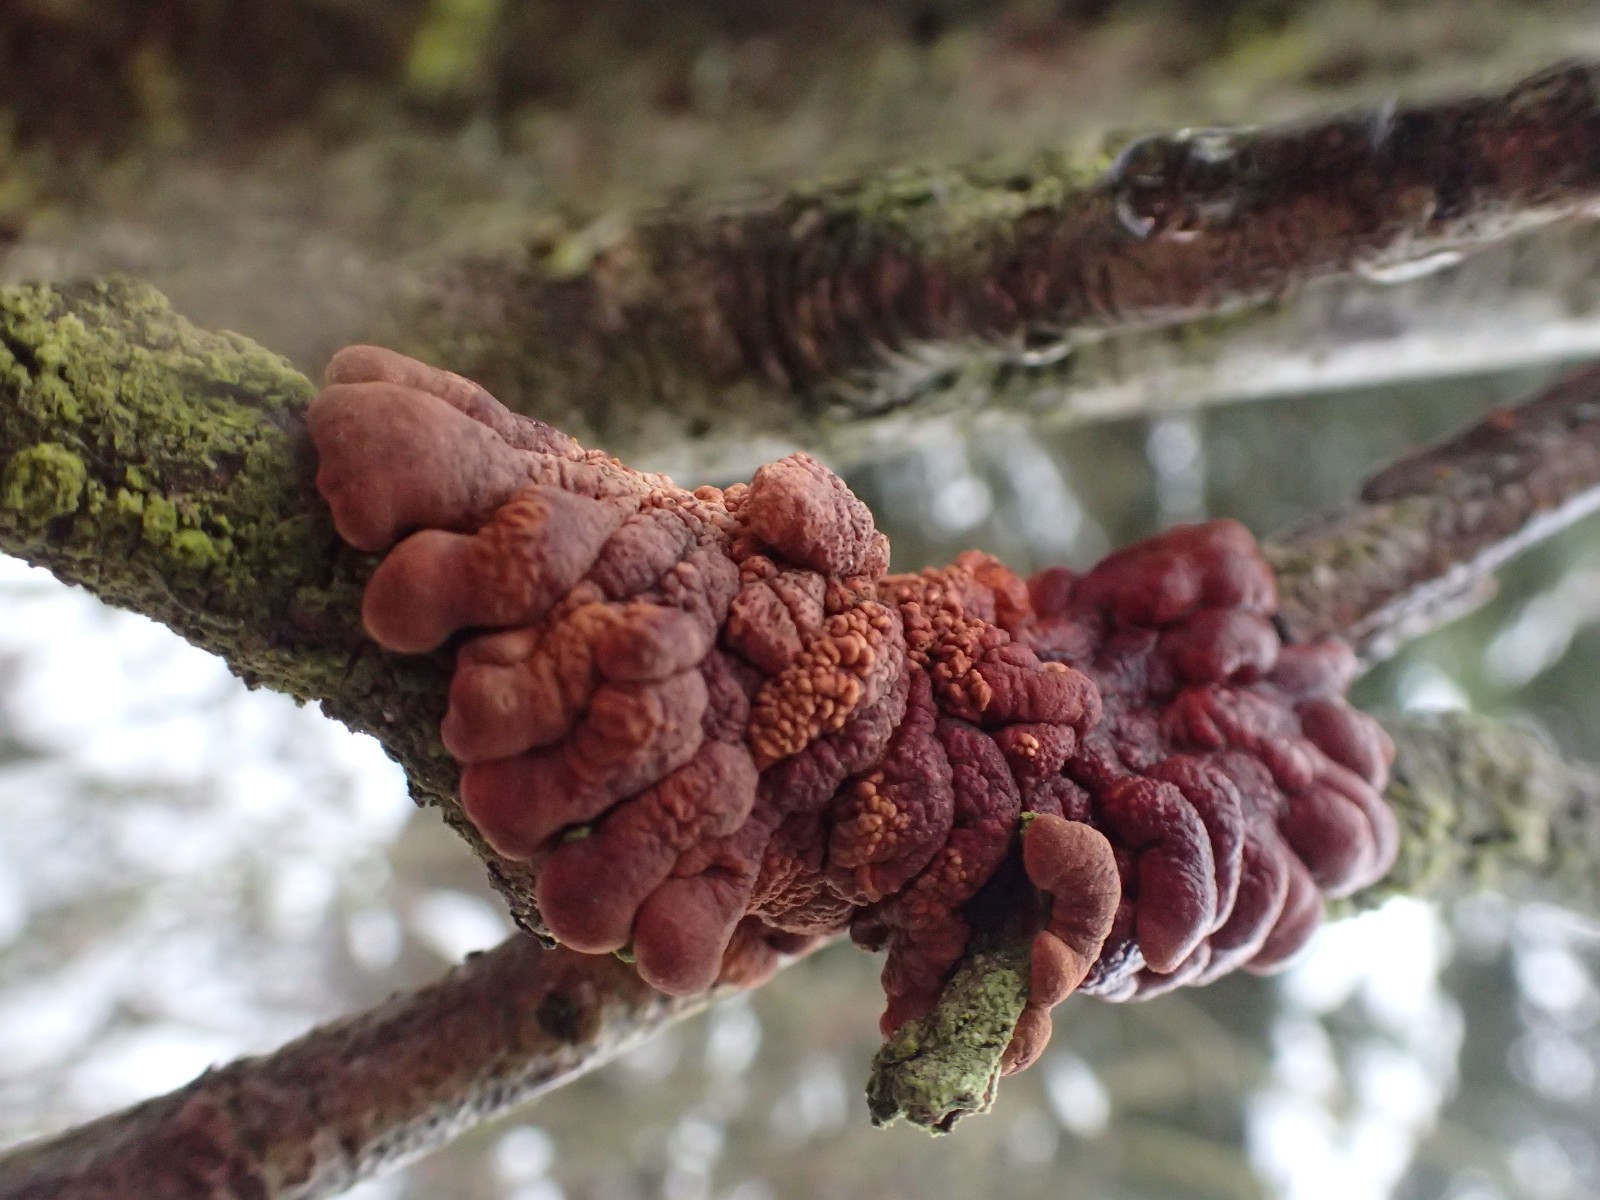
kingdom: Fungi
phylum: Ascomycota
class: Sordariomycetes
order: Hypocreales
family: Hypocreaceae
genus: Hypocreopsis
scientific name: Hypocreopsis lichenoides
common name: pilfinger
